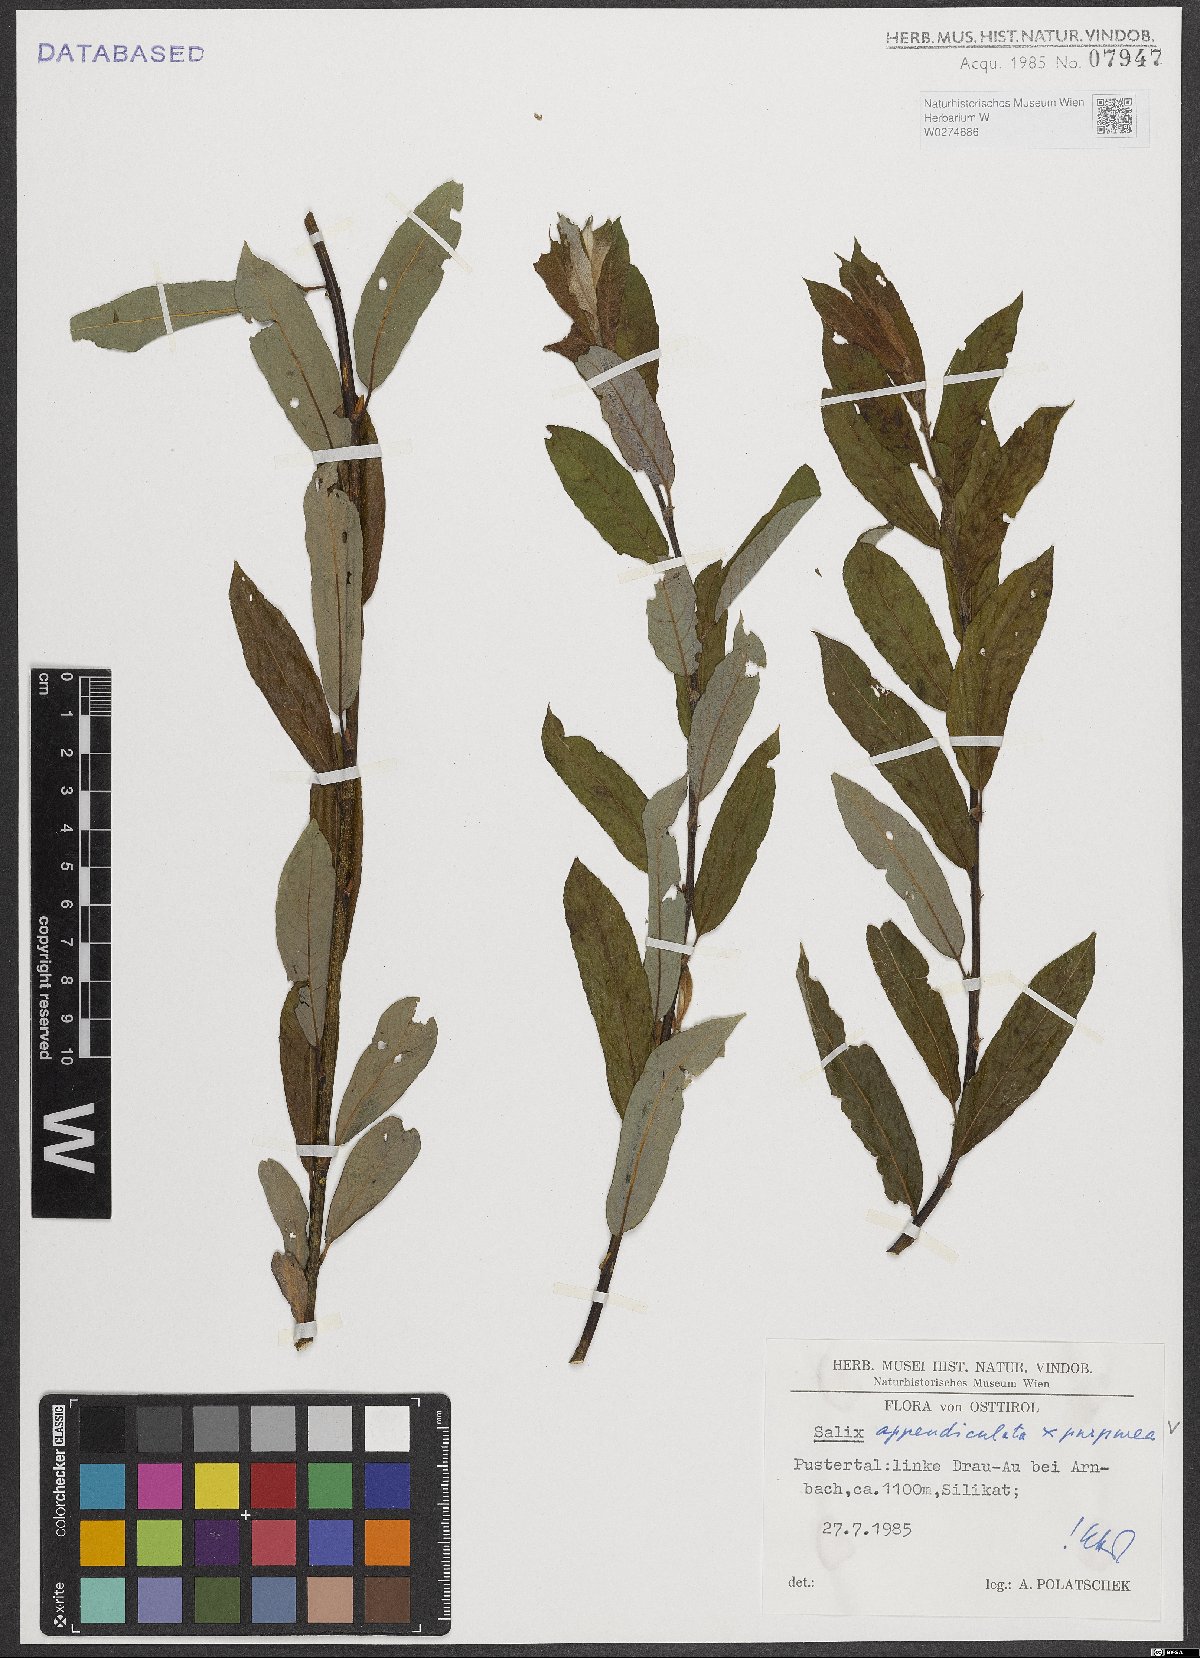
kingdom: Plantae
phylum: Tracheophyta
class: Magnoliopsida
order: Malpighiales
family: Salicaceae
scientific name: Salicaceae
